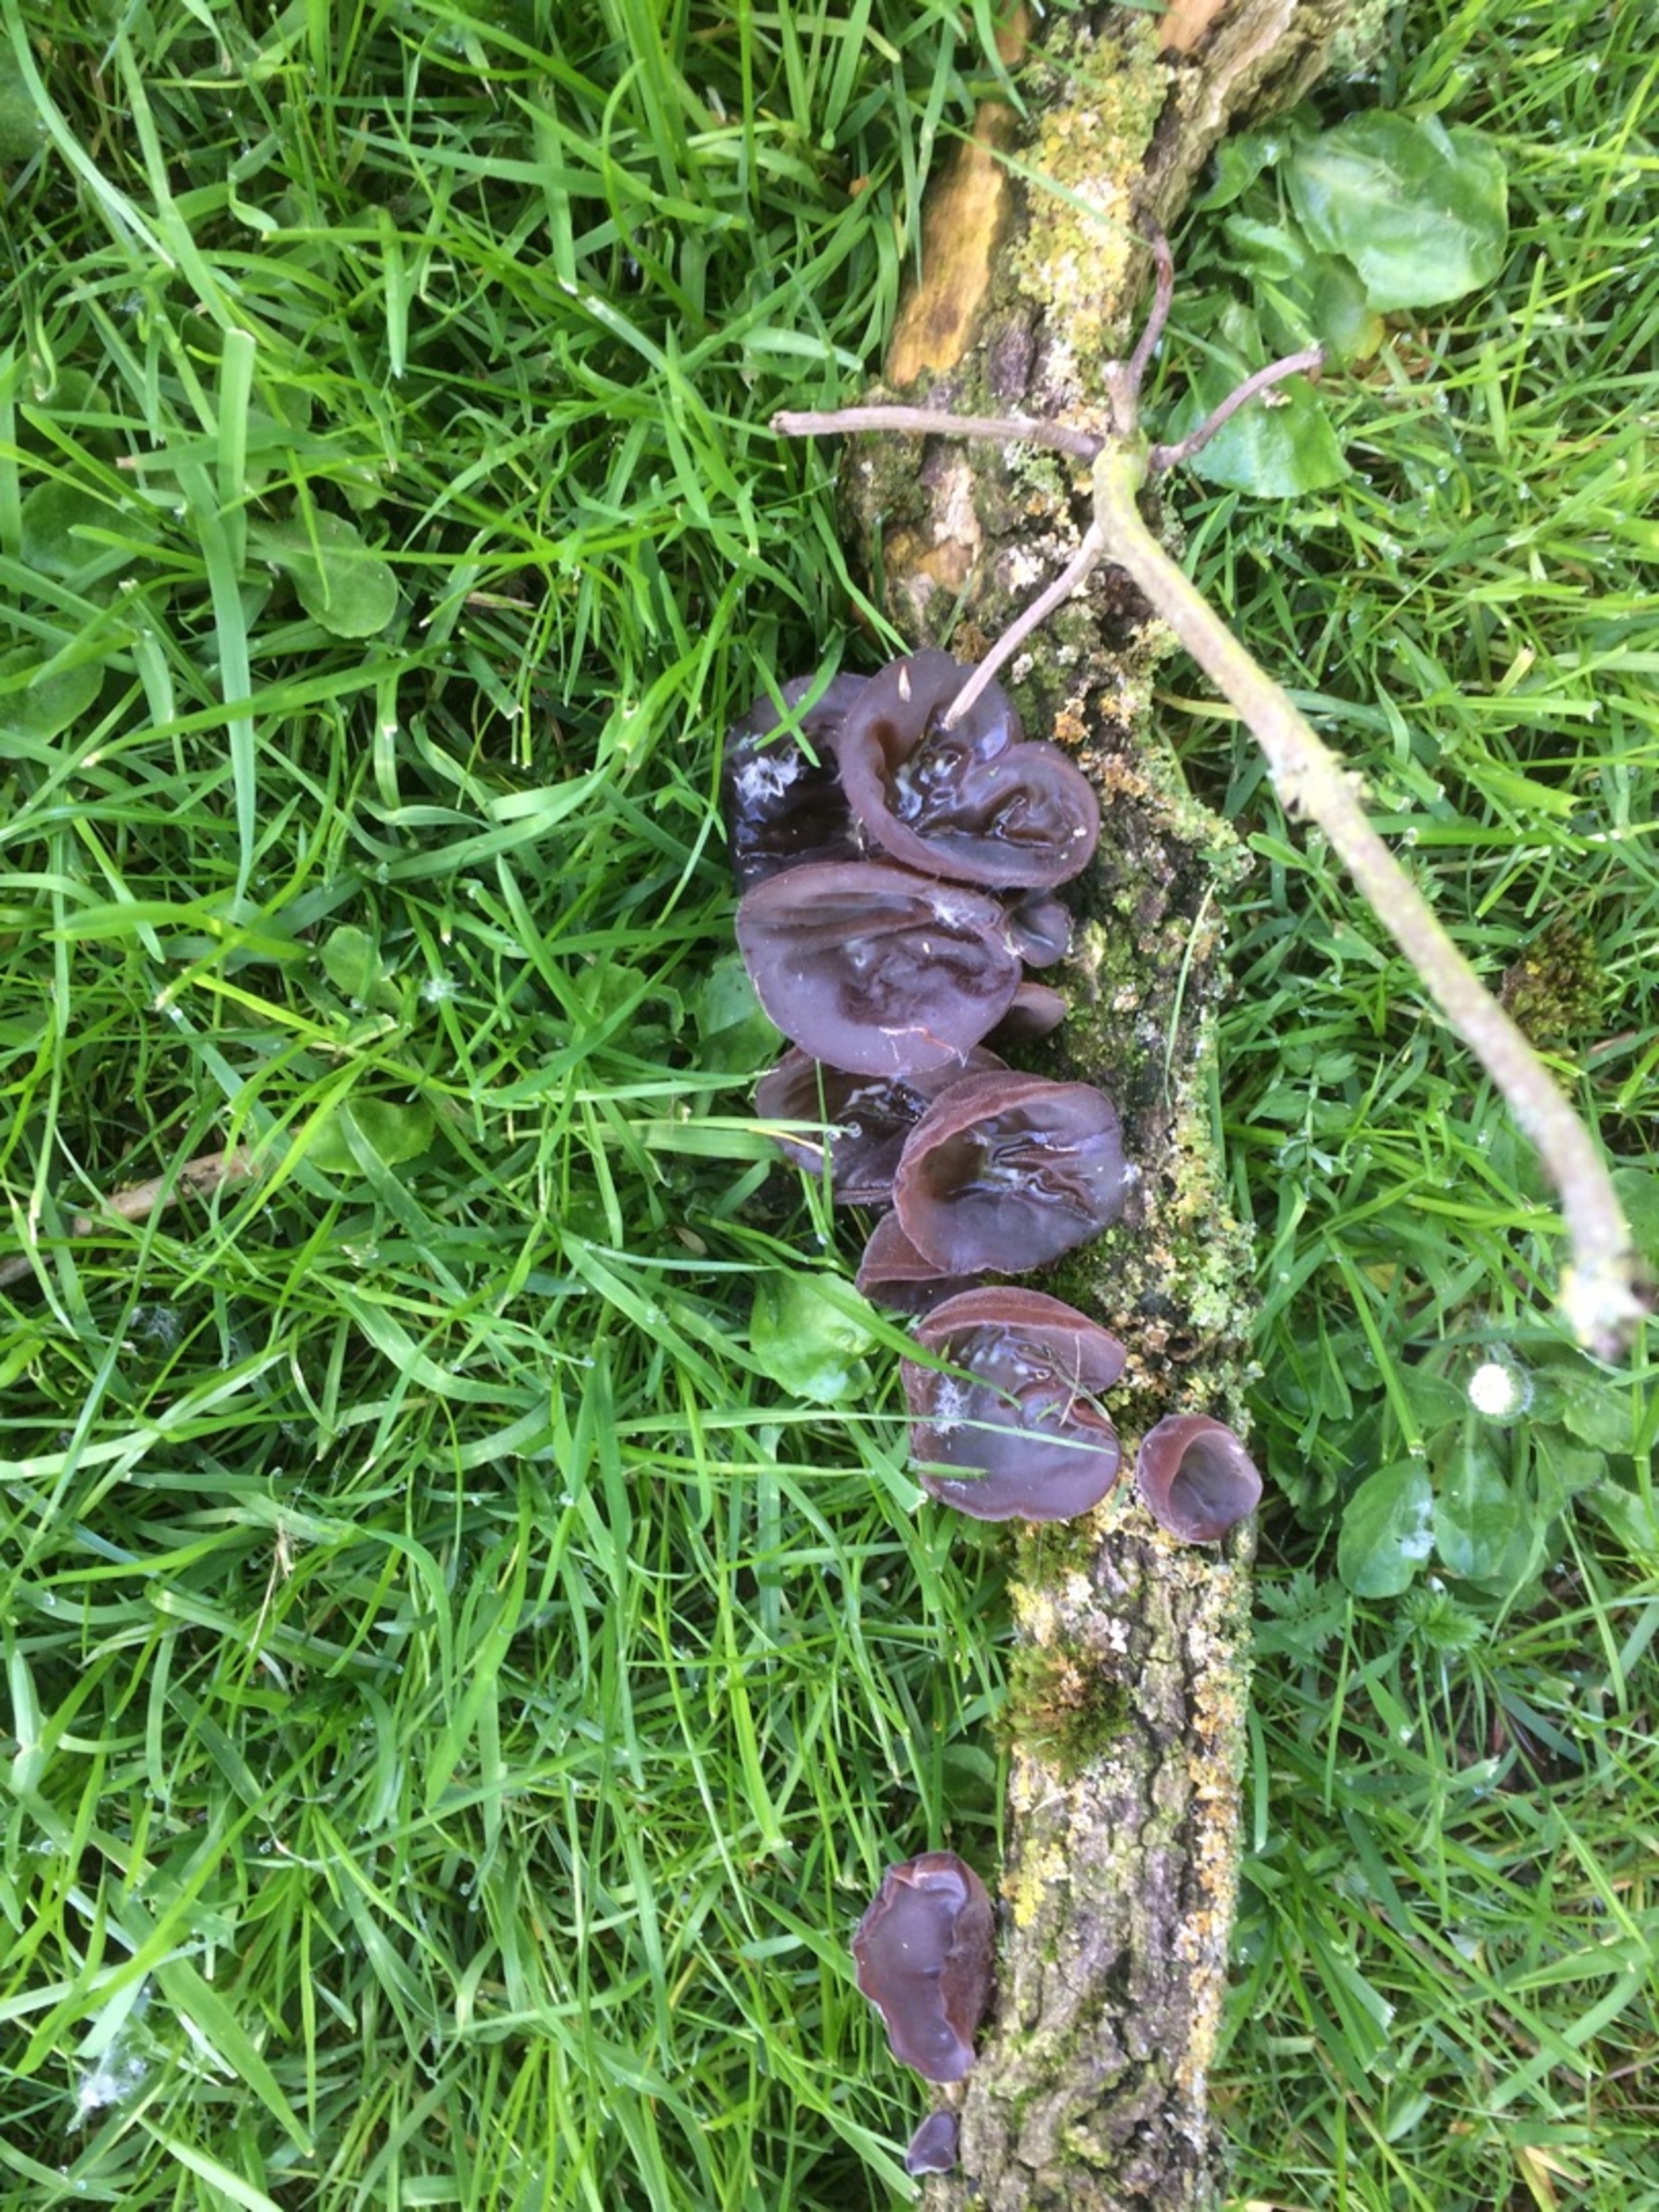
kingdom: Fungi
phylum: Basidiomycota
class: Agaricomycetes
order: Auriculariales
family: Auriculariaceae
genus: Auricularia
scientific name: Auricularia auricula-judae
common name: Almindelig judasøre
